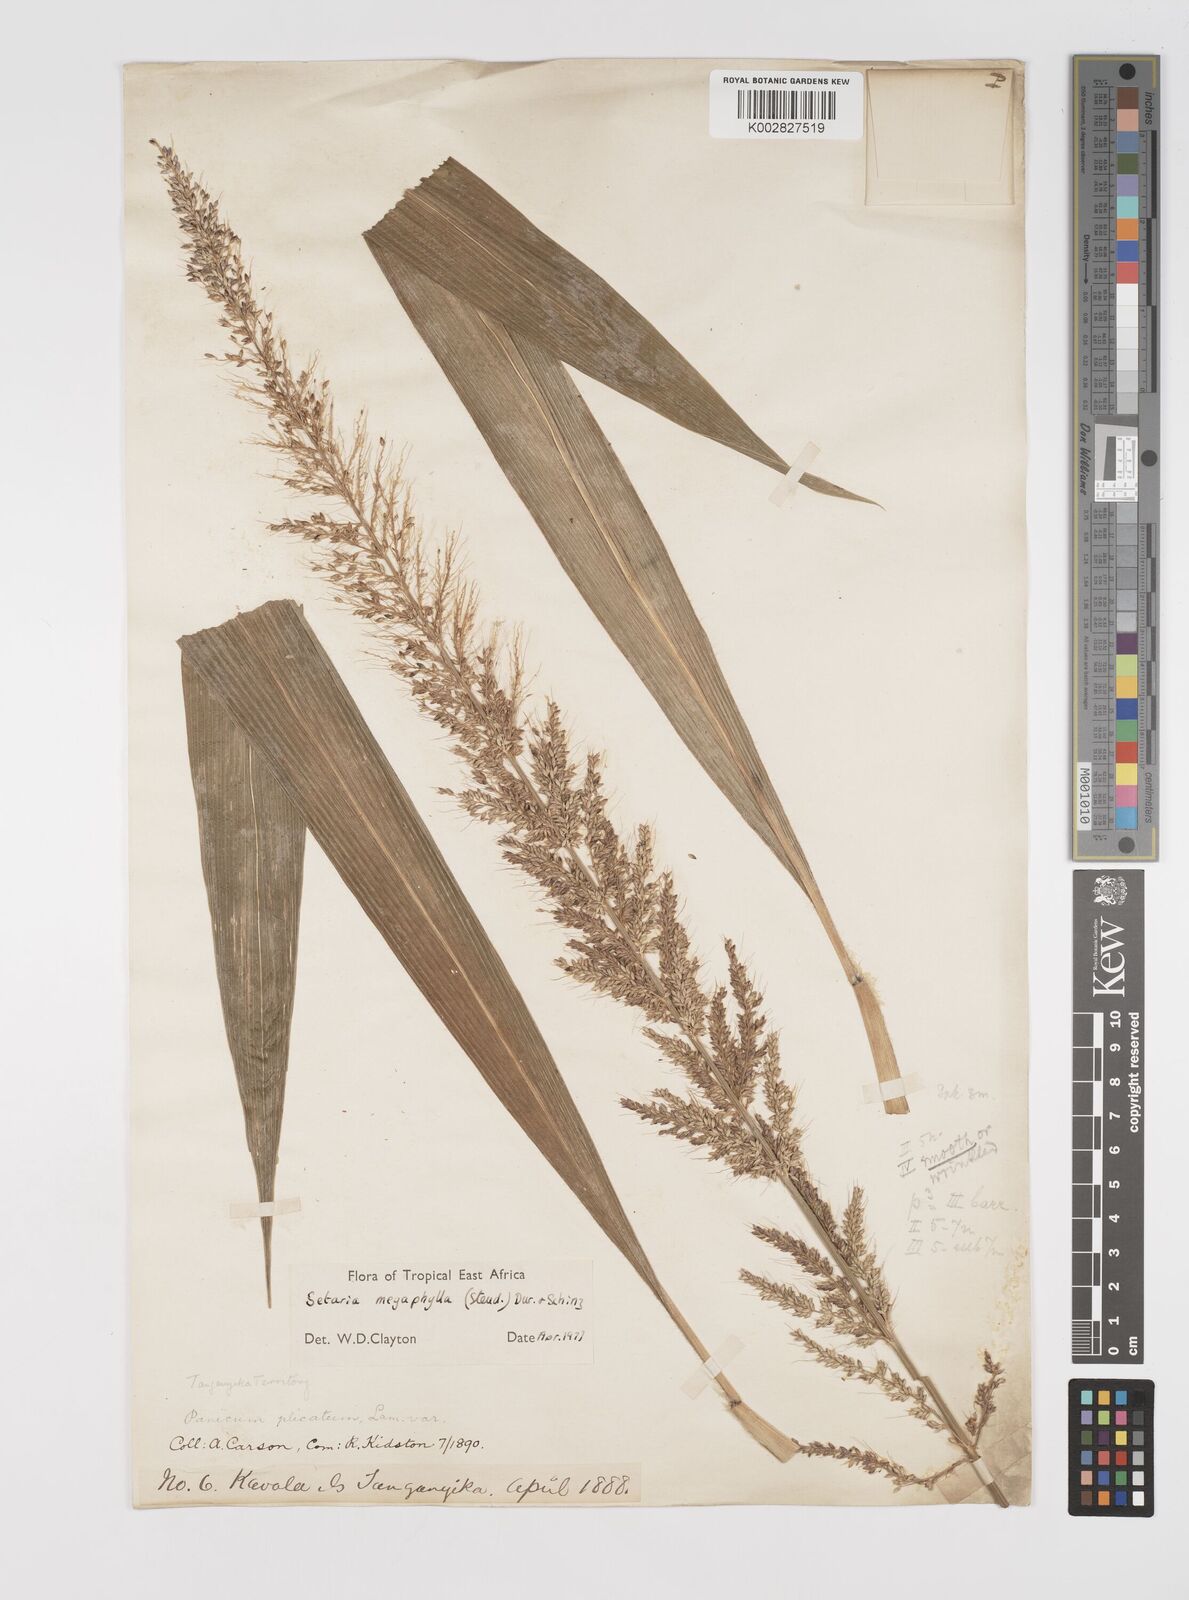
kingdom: Plantae
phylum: Tracheophyta
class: Liliopsida
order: Poales
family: Poaceae
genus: Setaria
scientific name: Setaria megaphylla
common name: Bigleaf bristlegrass
